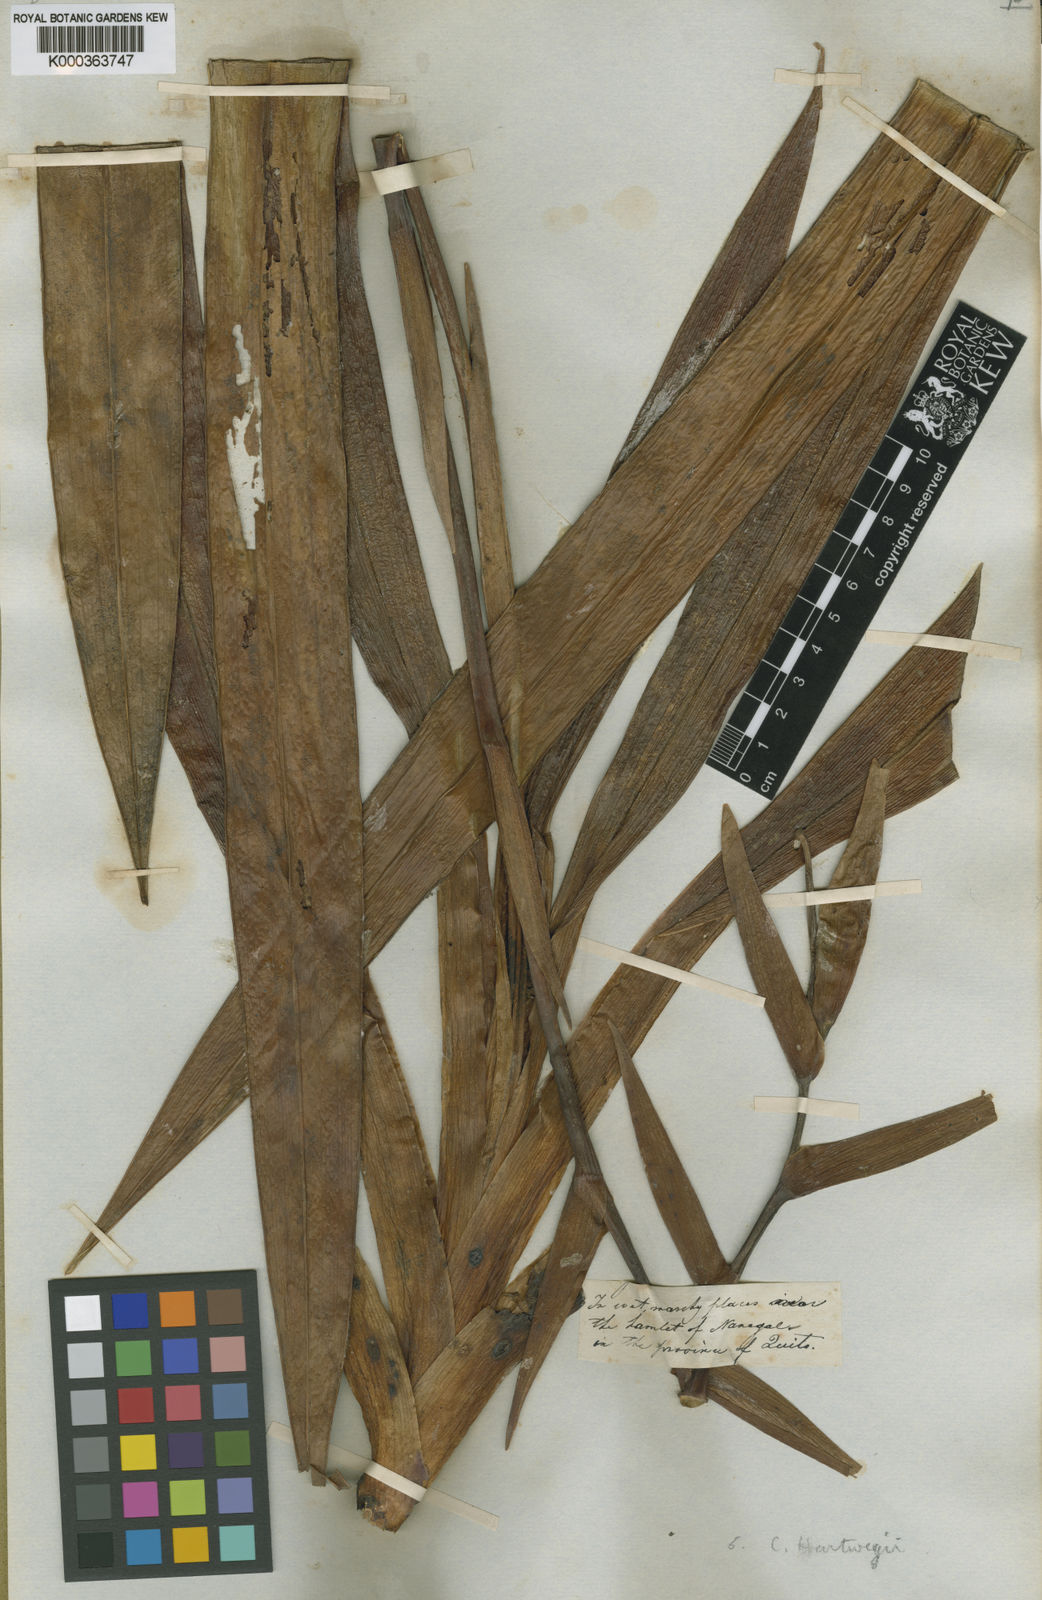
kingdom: Plantae
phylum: Tracheophyta
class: Liliopsida
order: Asparagales
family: Orchidaceae
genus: Phragmipedium
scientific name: Phragmipedium caudatum
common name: Tailed phragmipedium
